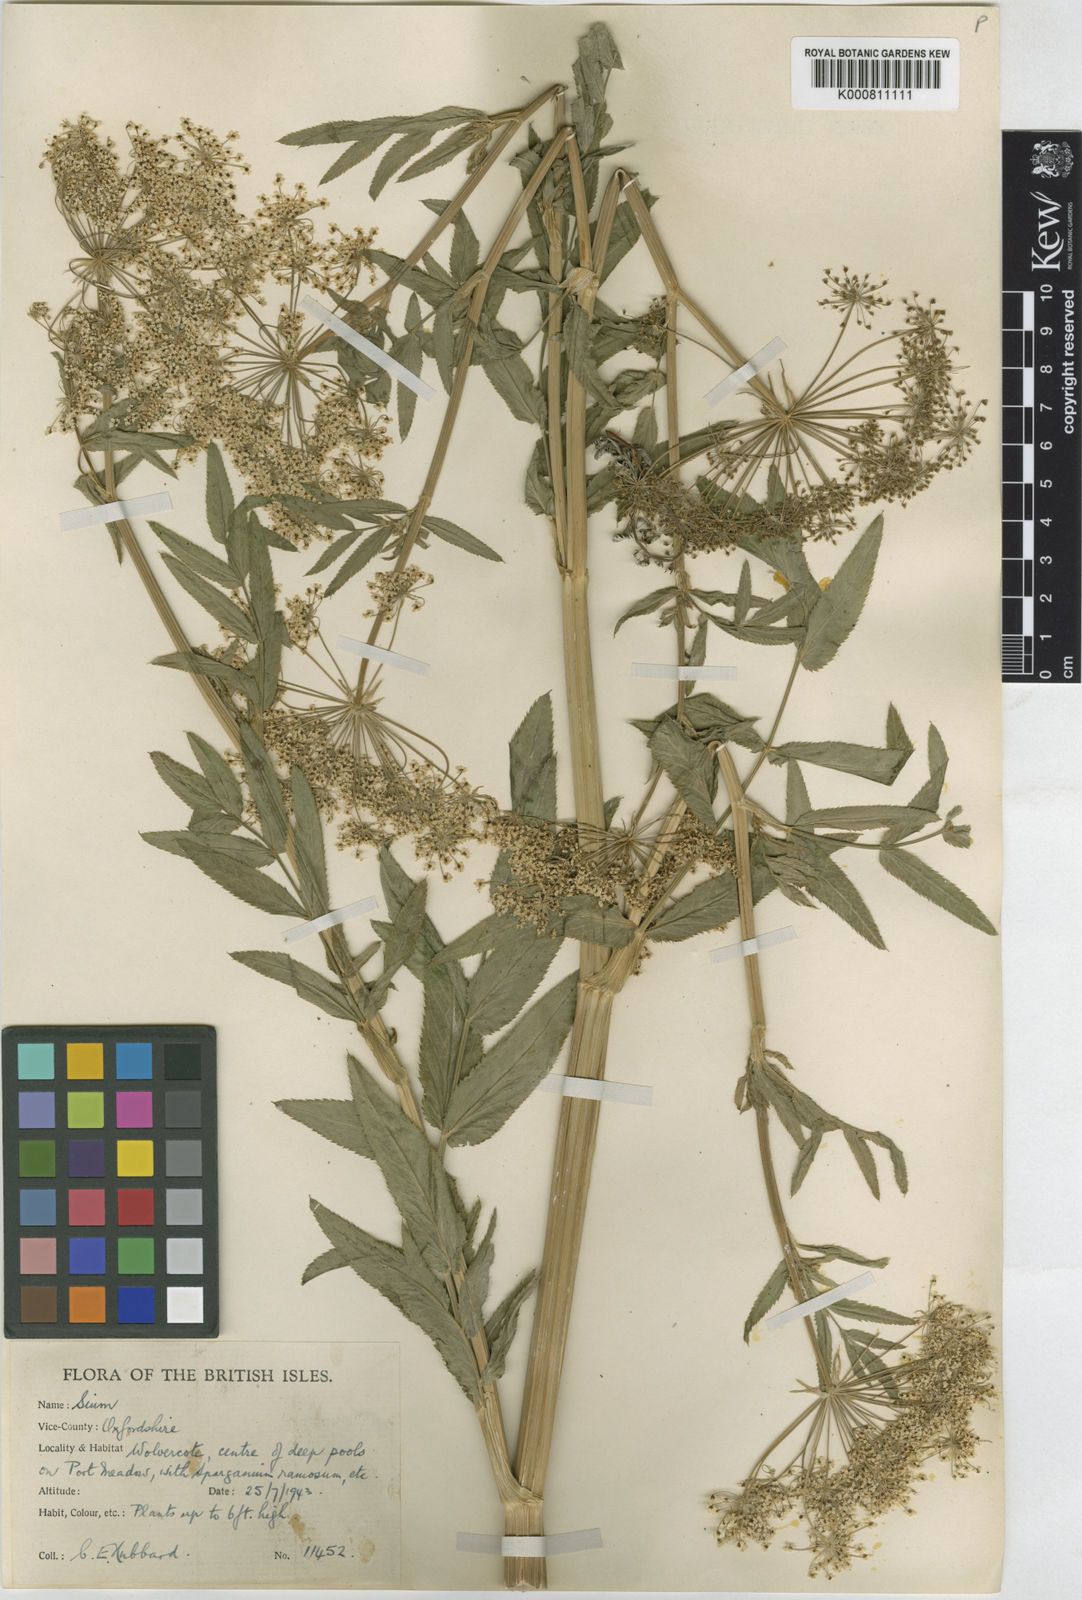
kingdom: Plantae
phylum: Tracheophyta
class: Magnoliopsida
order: Apiales
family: Apiaceae
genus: Sium
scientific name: Sium latifolium
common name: Greater water-parsnip
